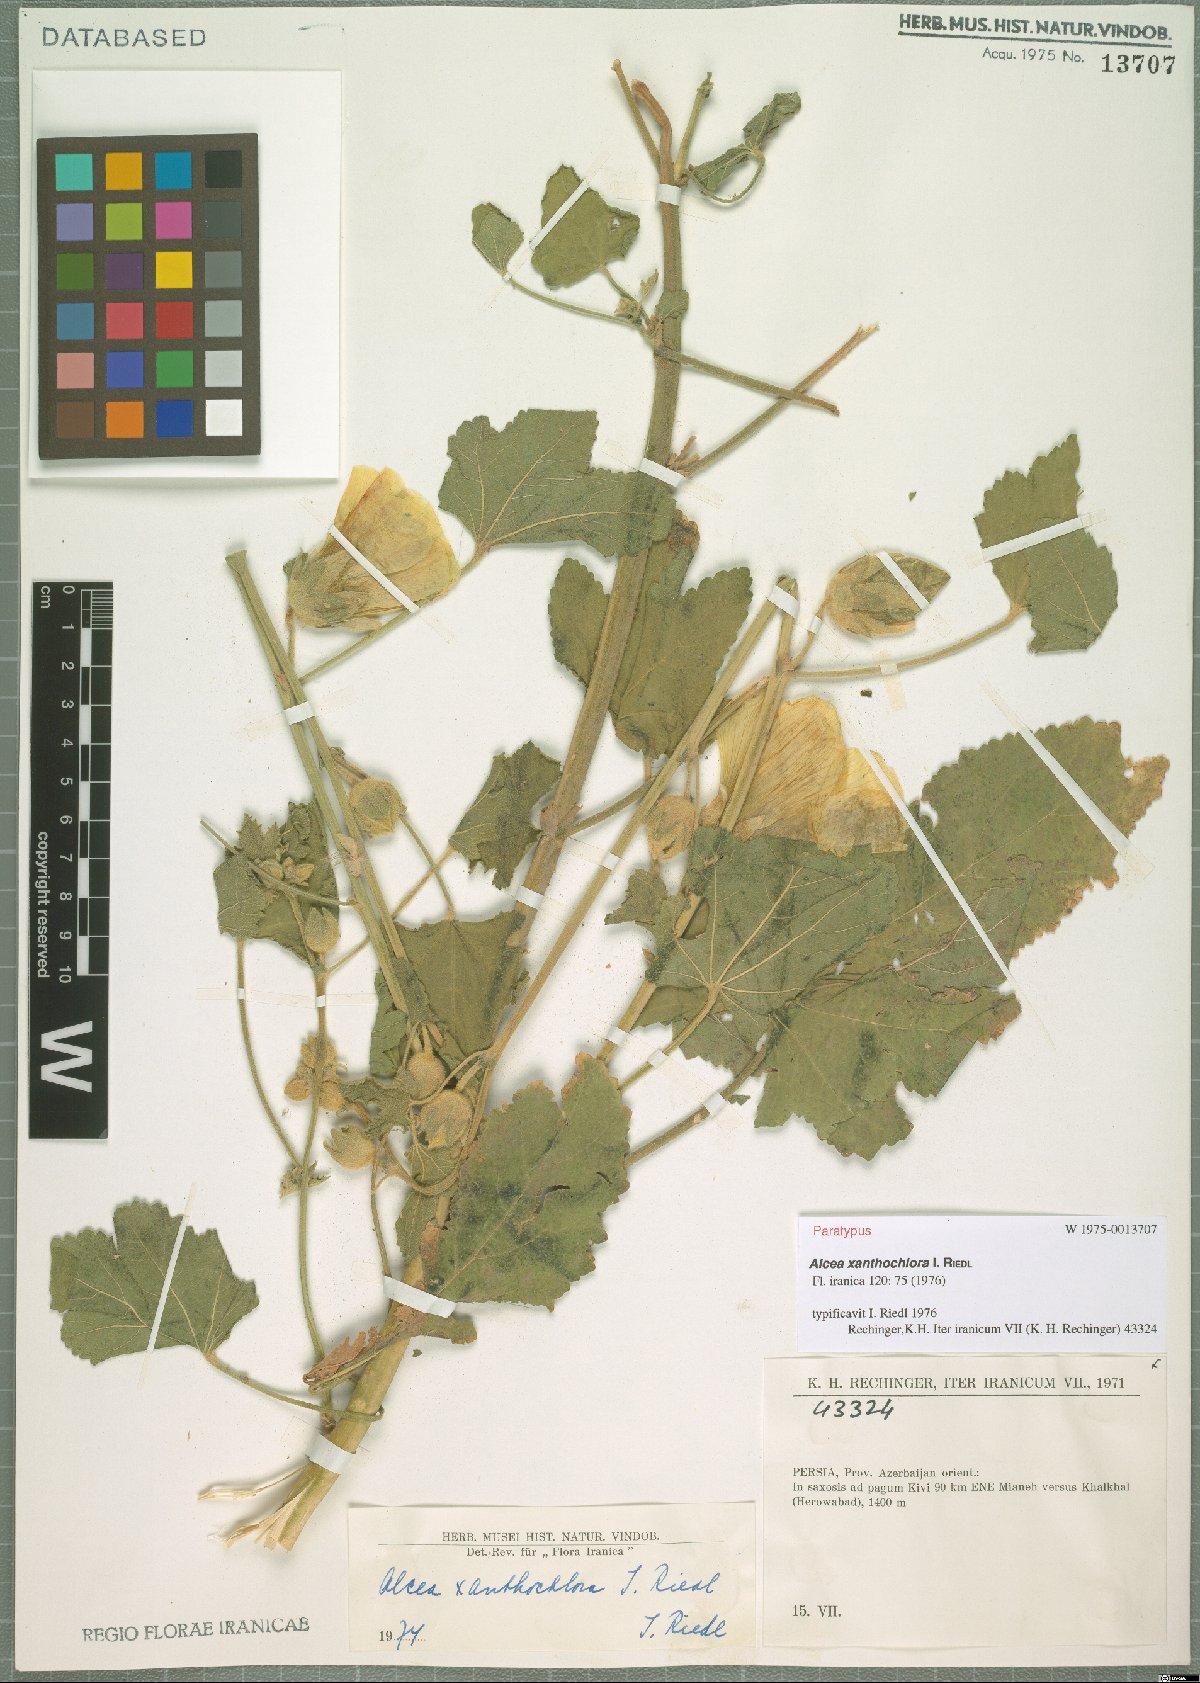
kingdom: Plantae
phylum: Tracheophyta
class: Magnoliopsida
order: Malvales
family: Malvaceae
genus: Alcea
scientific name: Alcea xanthochlora
